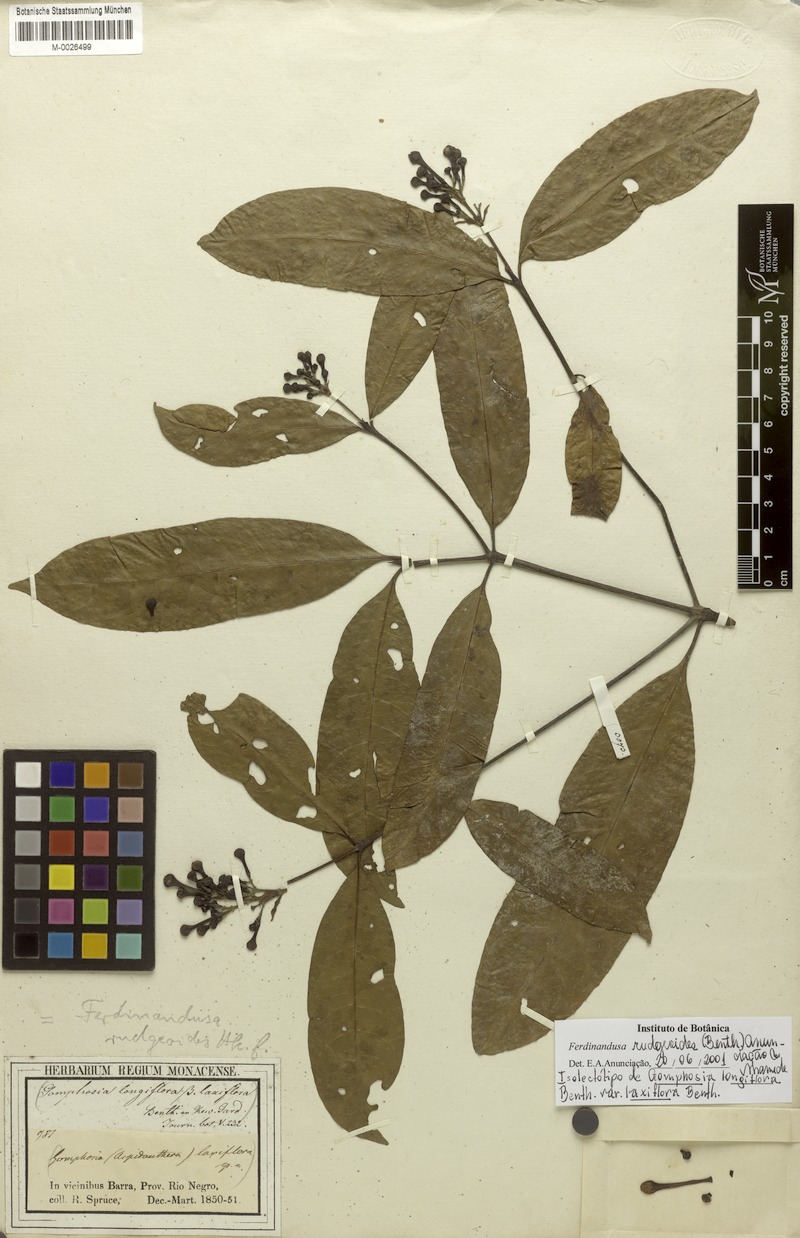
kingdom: Plantae
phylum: Tracheophyta
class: Magnoliopsida
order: Gentianales
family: Rubiaceae
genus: Ferdinandusa
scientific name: Ferdinandusa rudgeoides
